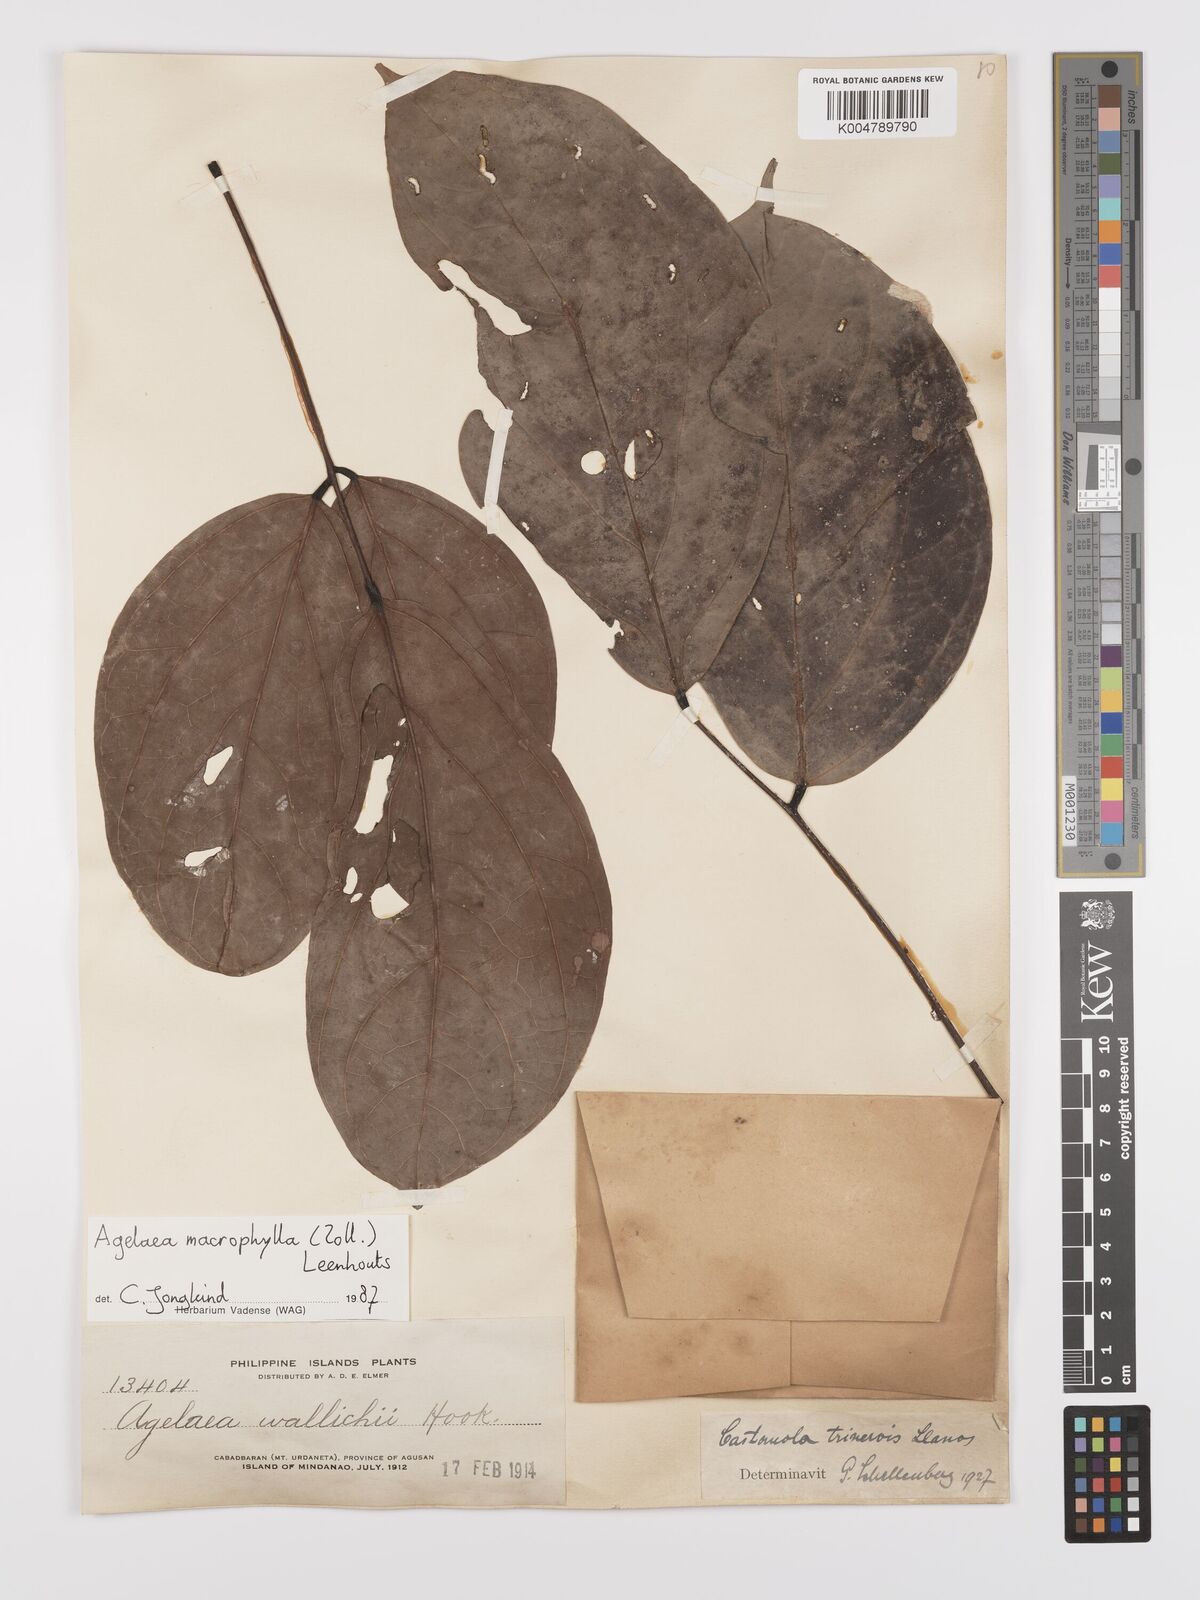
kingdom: Plantae
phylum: Tracheophyta
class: Magnoliopsida
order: Oxalidales
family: Connaraceae
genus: Agelaea
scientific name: Agelaea trinervis
